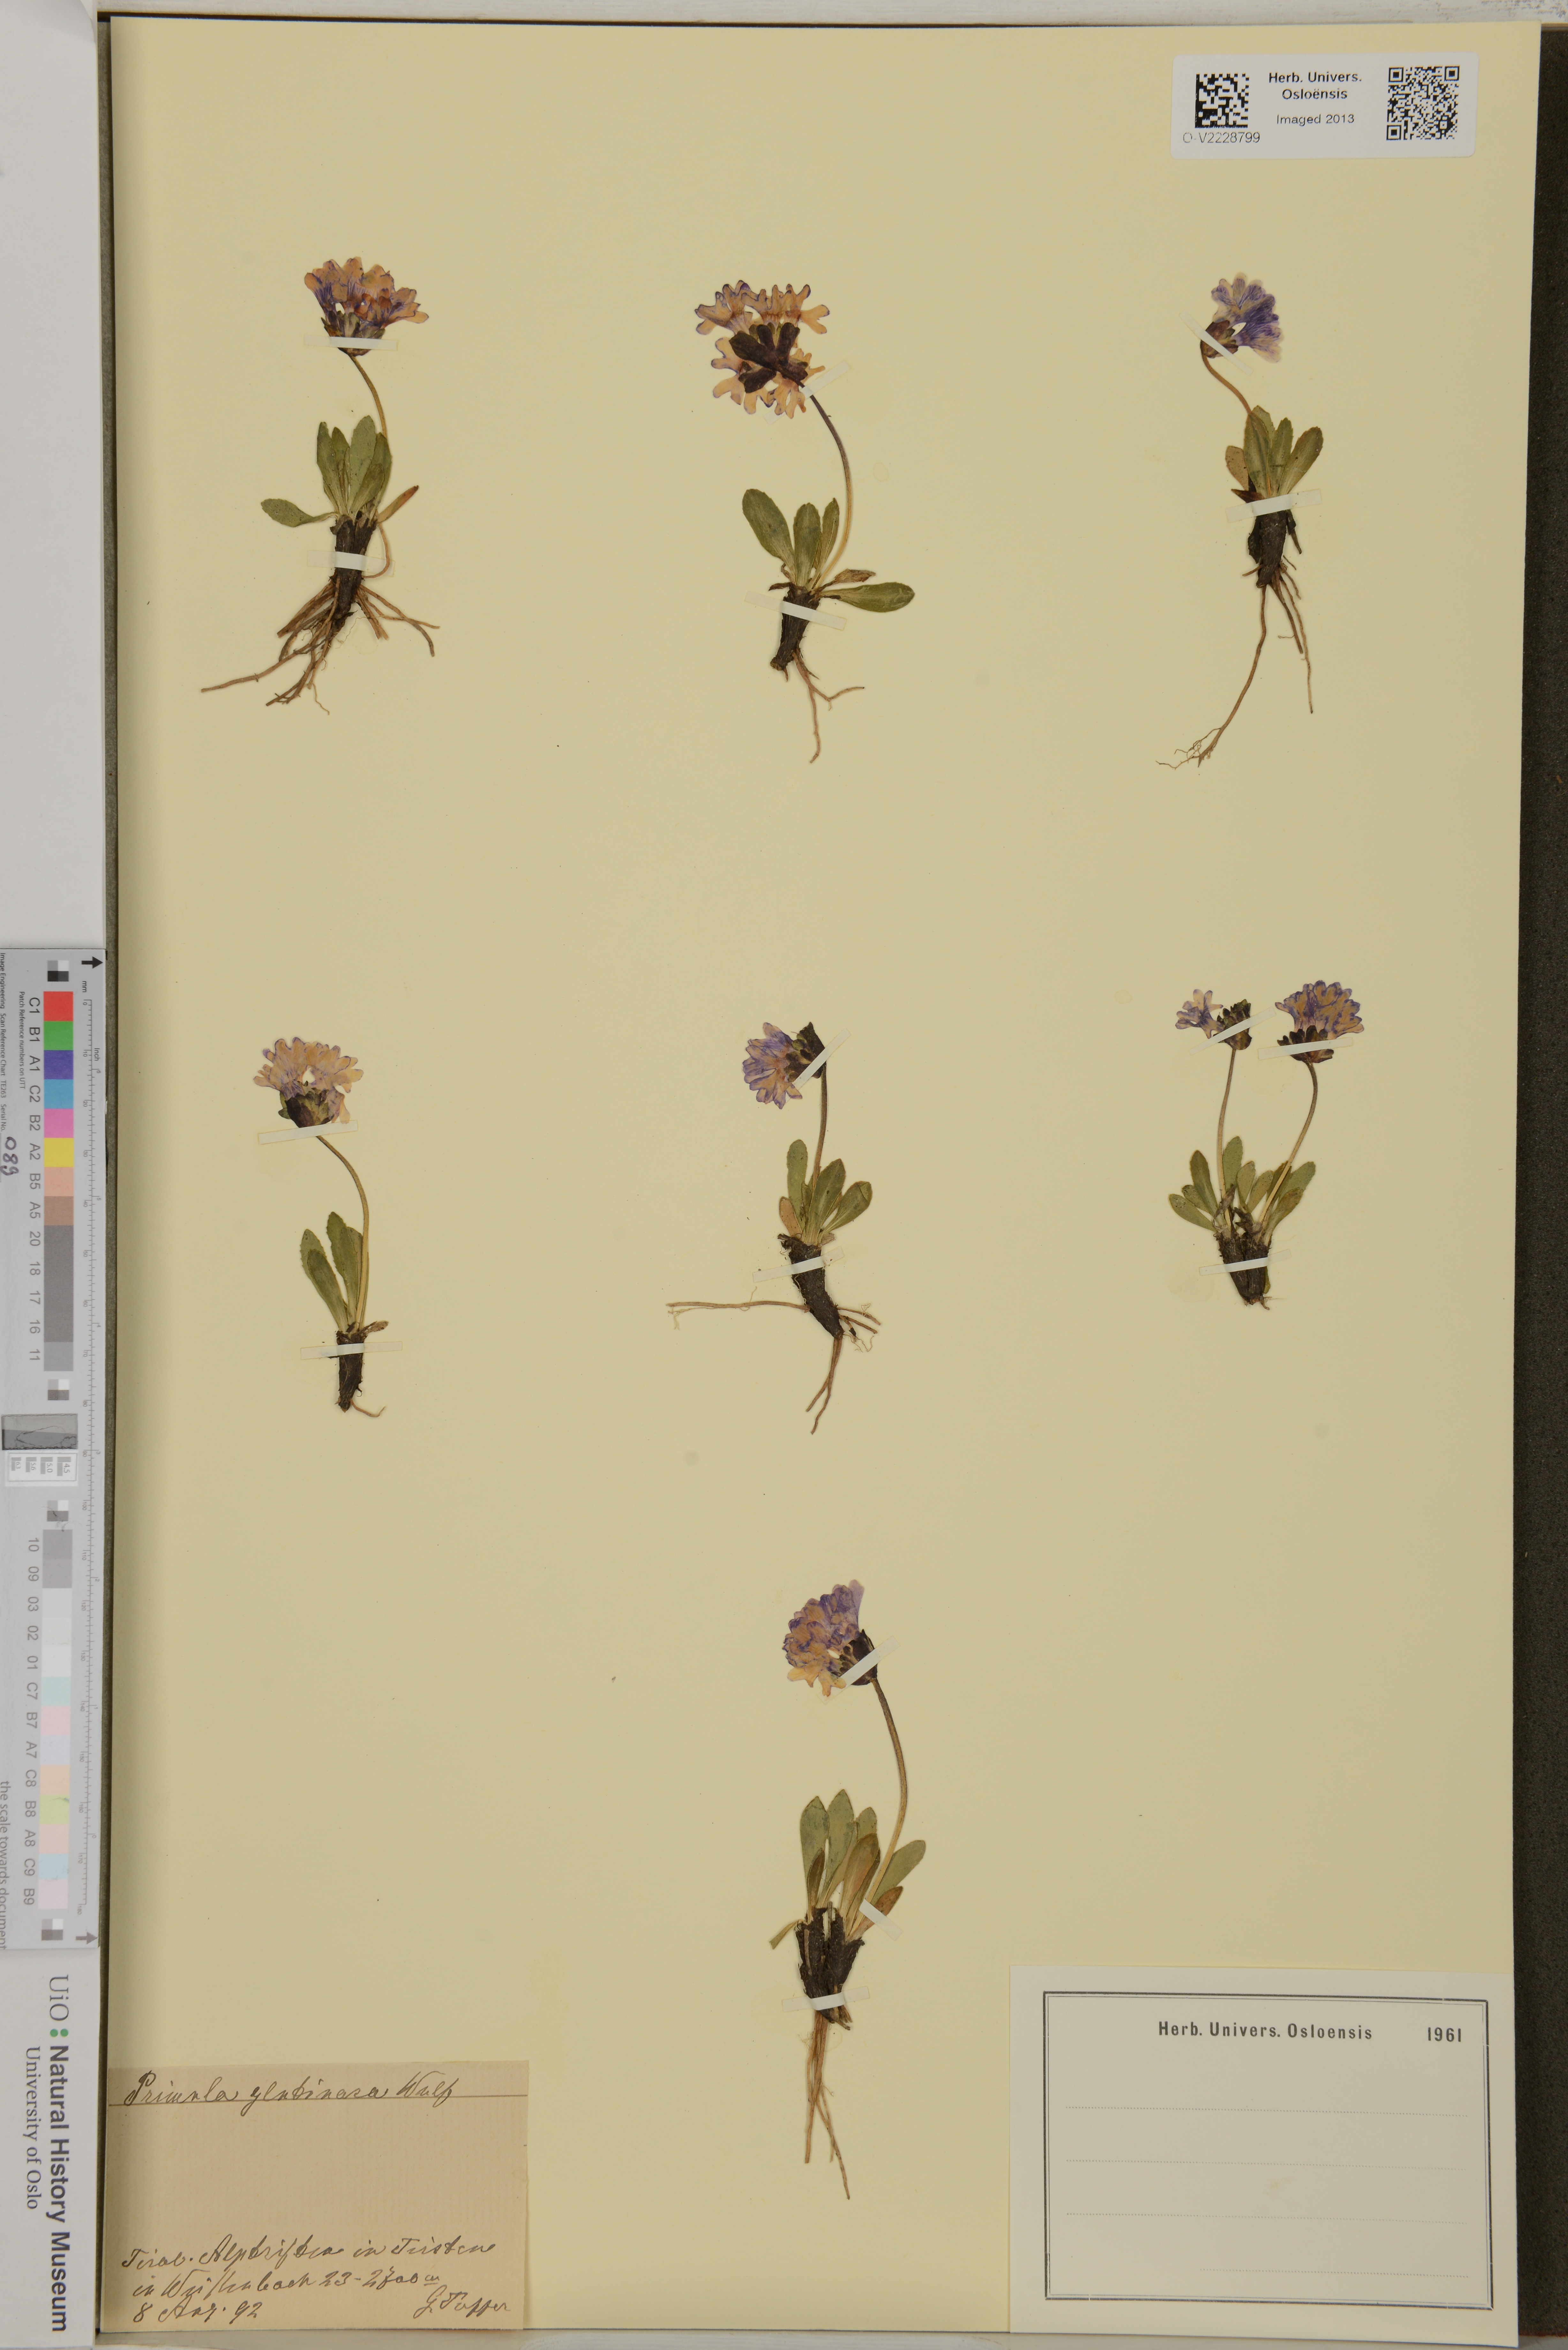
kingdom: Plantae
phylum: Tracheophyta
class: Magnoliopsida
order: Ericales
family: Primulaceae
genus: Primula
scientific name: Primula glutinosa
